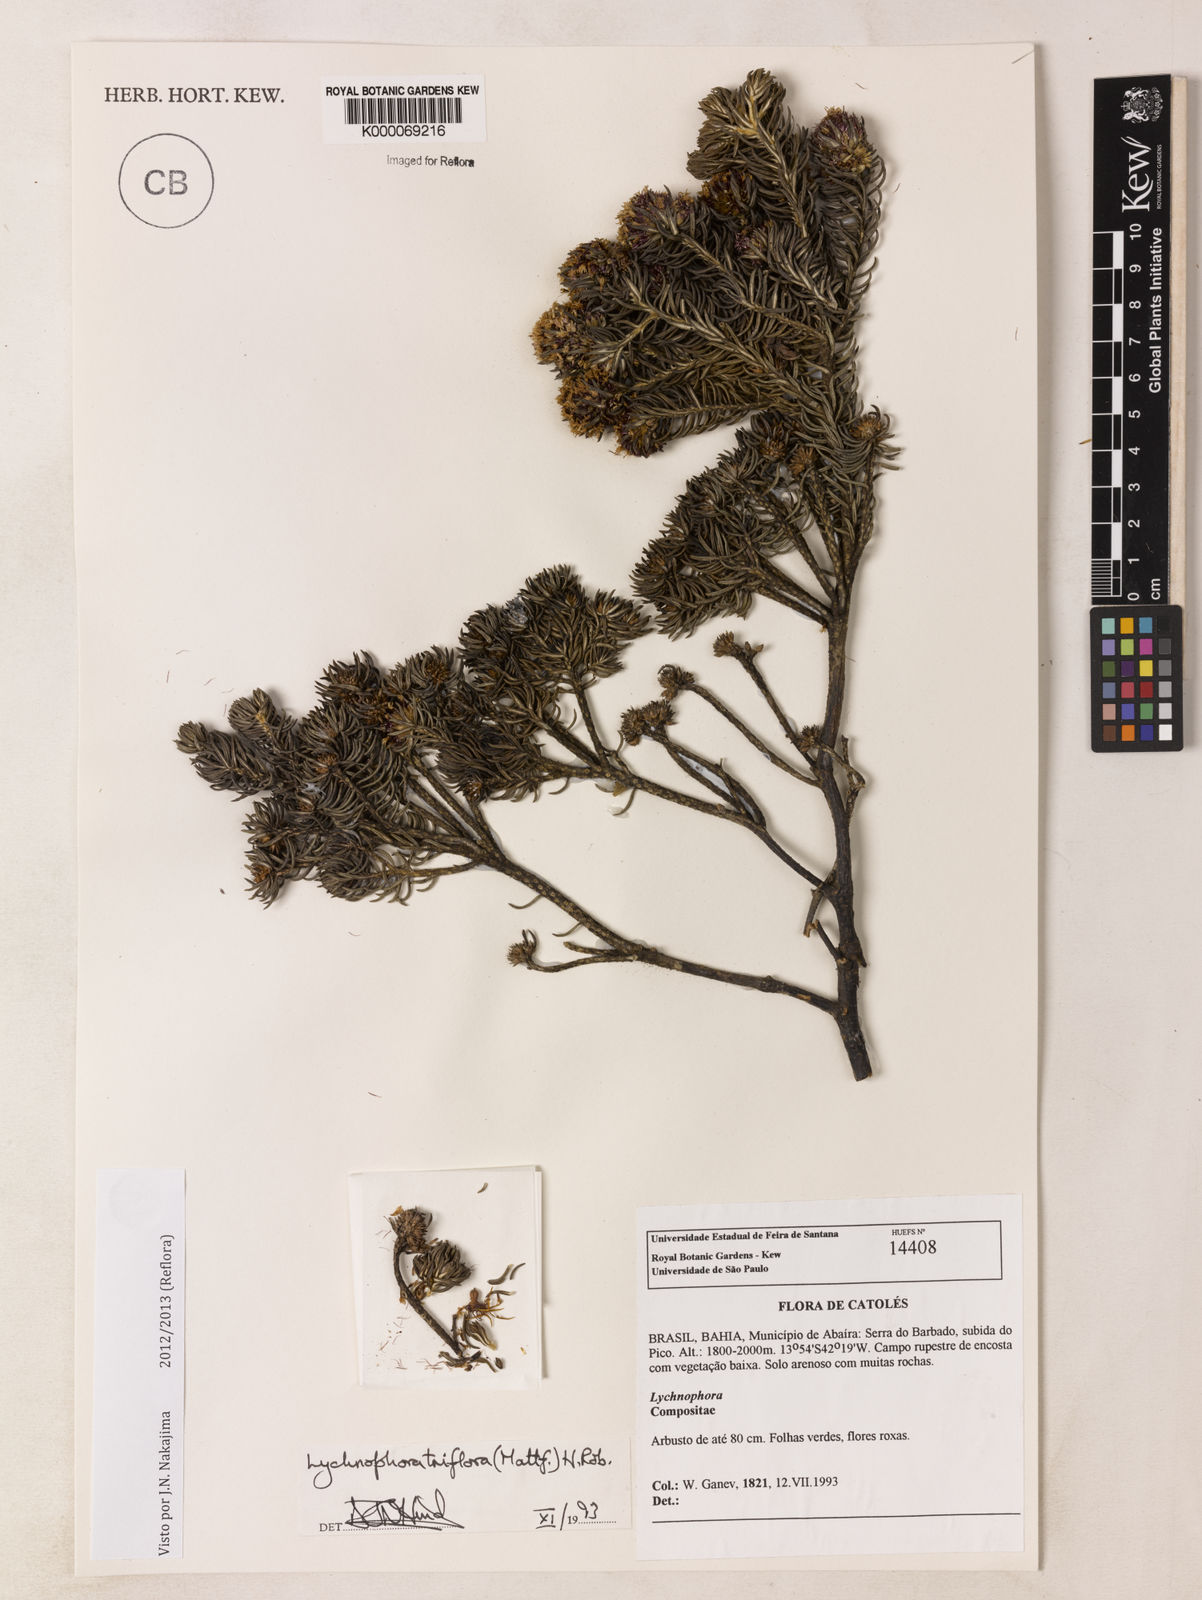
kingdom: Plantae
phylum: Tracheophyta
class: Magnoliopsida
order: Asterales
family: Asteraceae
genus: Lychnophorella
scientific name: Lychnophorella triflora
